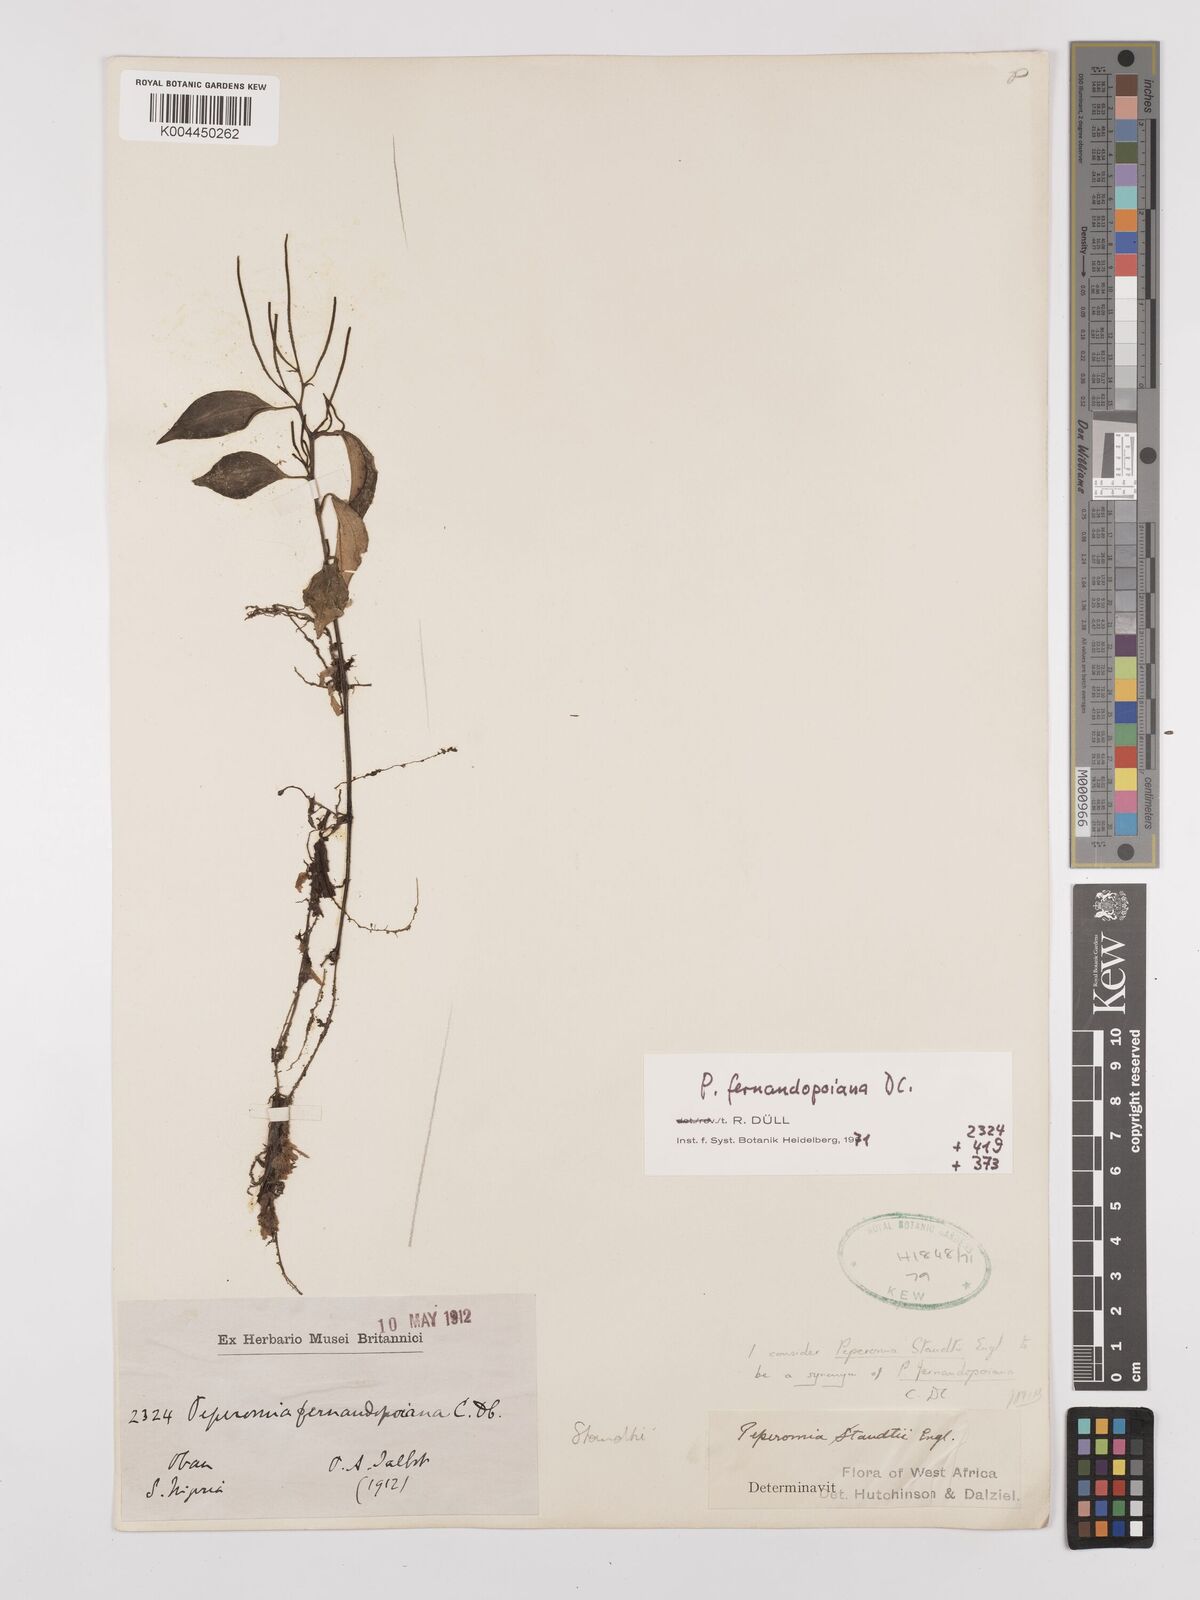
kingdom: Plantae
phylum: Tracheophyta
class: Magnoliopsida
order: Piperales
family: Piperaceae
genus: Peperomia
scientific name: Peperomia fernandeziana
